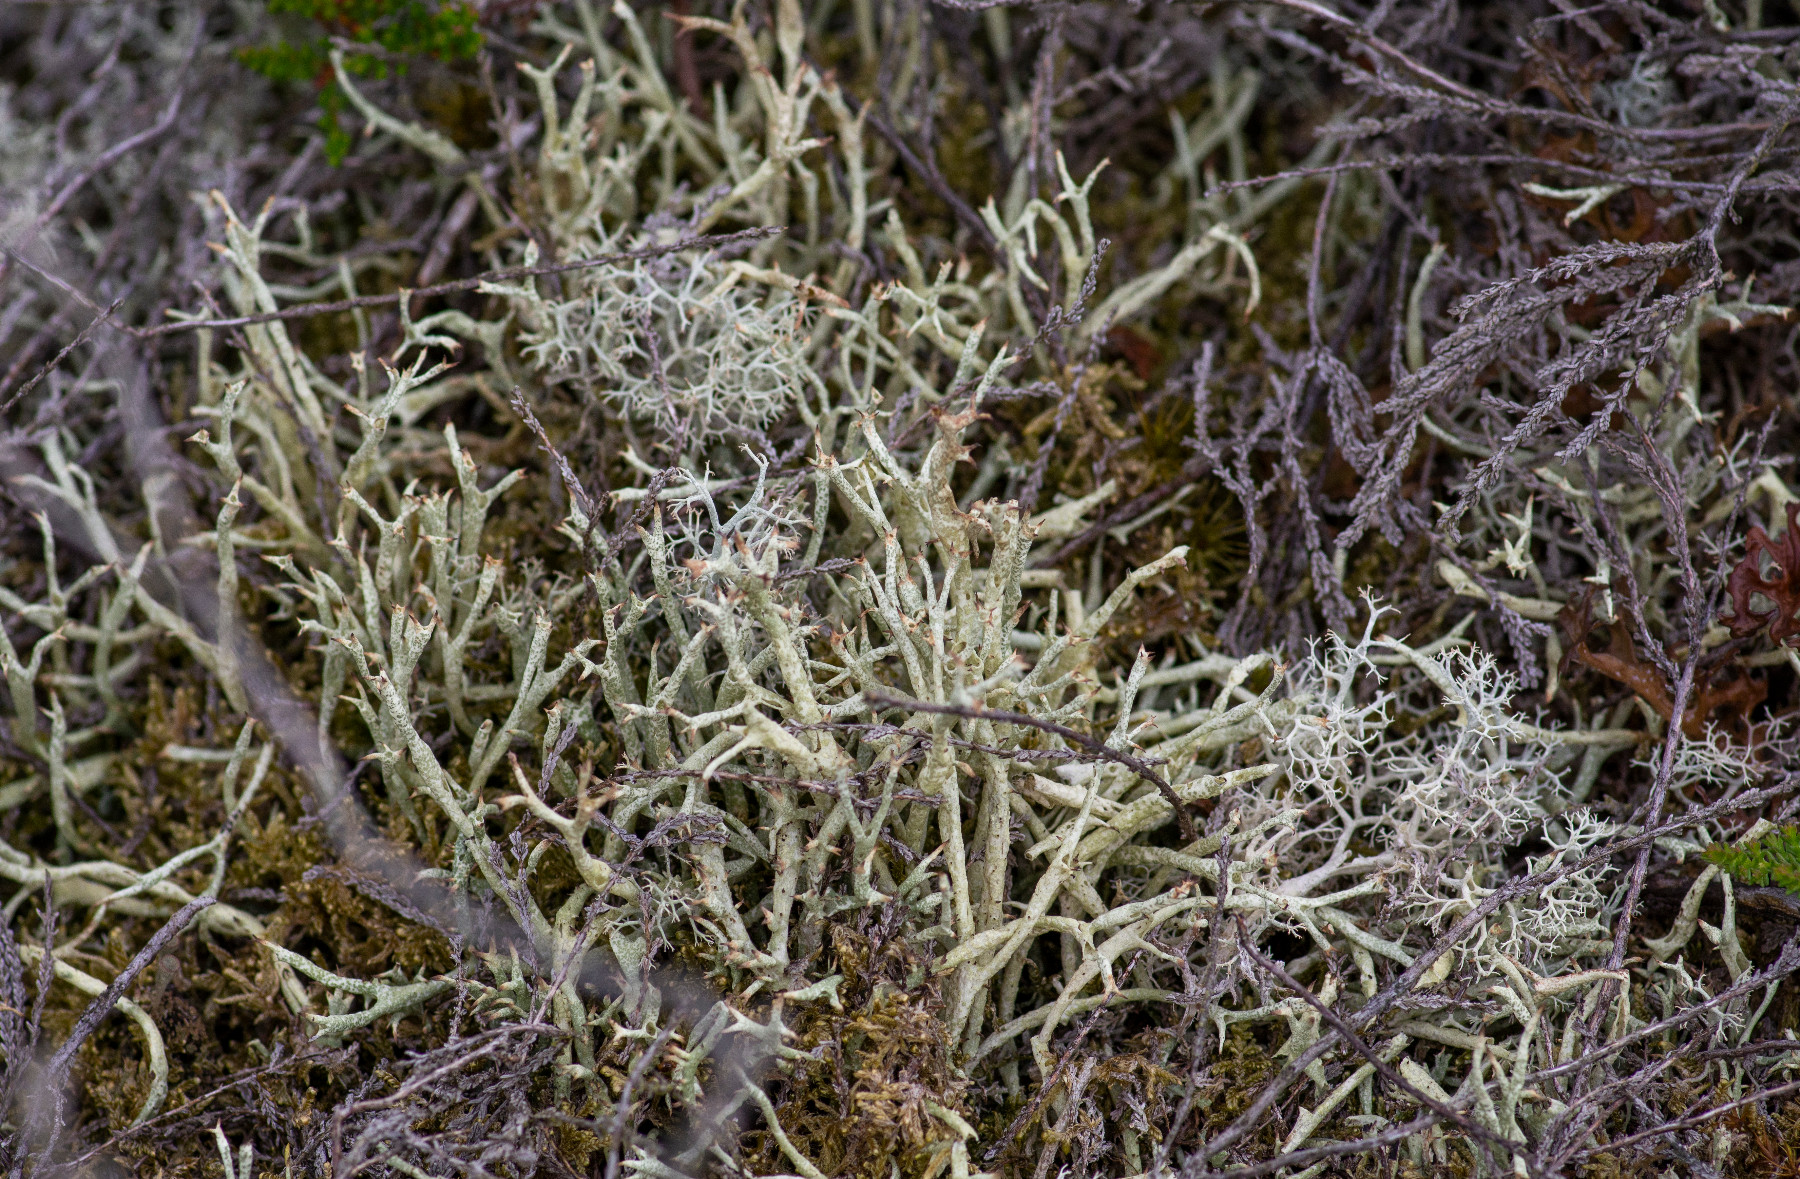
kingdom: Fungi
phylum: Ascomycota
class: Lecanoromycetes
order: Lecanorales
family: Cladoniaceae
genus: Cladonia
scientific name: Cladonia uncialis
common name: pigget bægerlav
